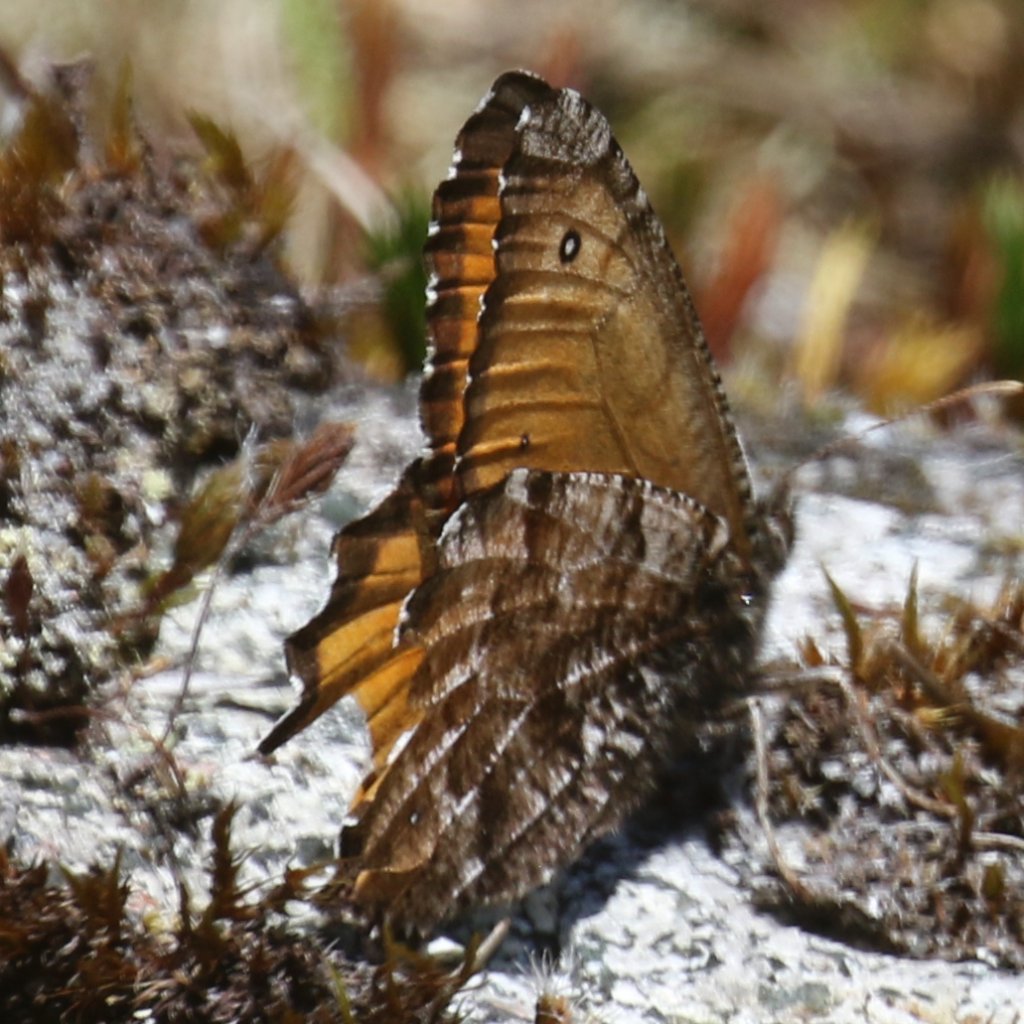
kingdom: Animalia
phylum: Arthropoda
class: Insecta
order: Lepidoptera
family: Nymphalidae
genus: Oeneis
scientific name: Oeneis nevadensis
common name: Great Arctic
